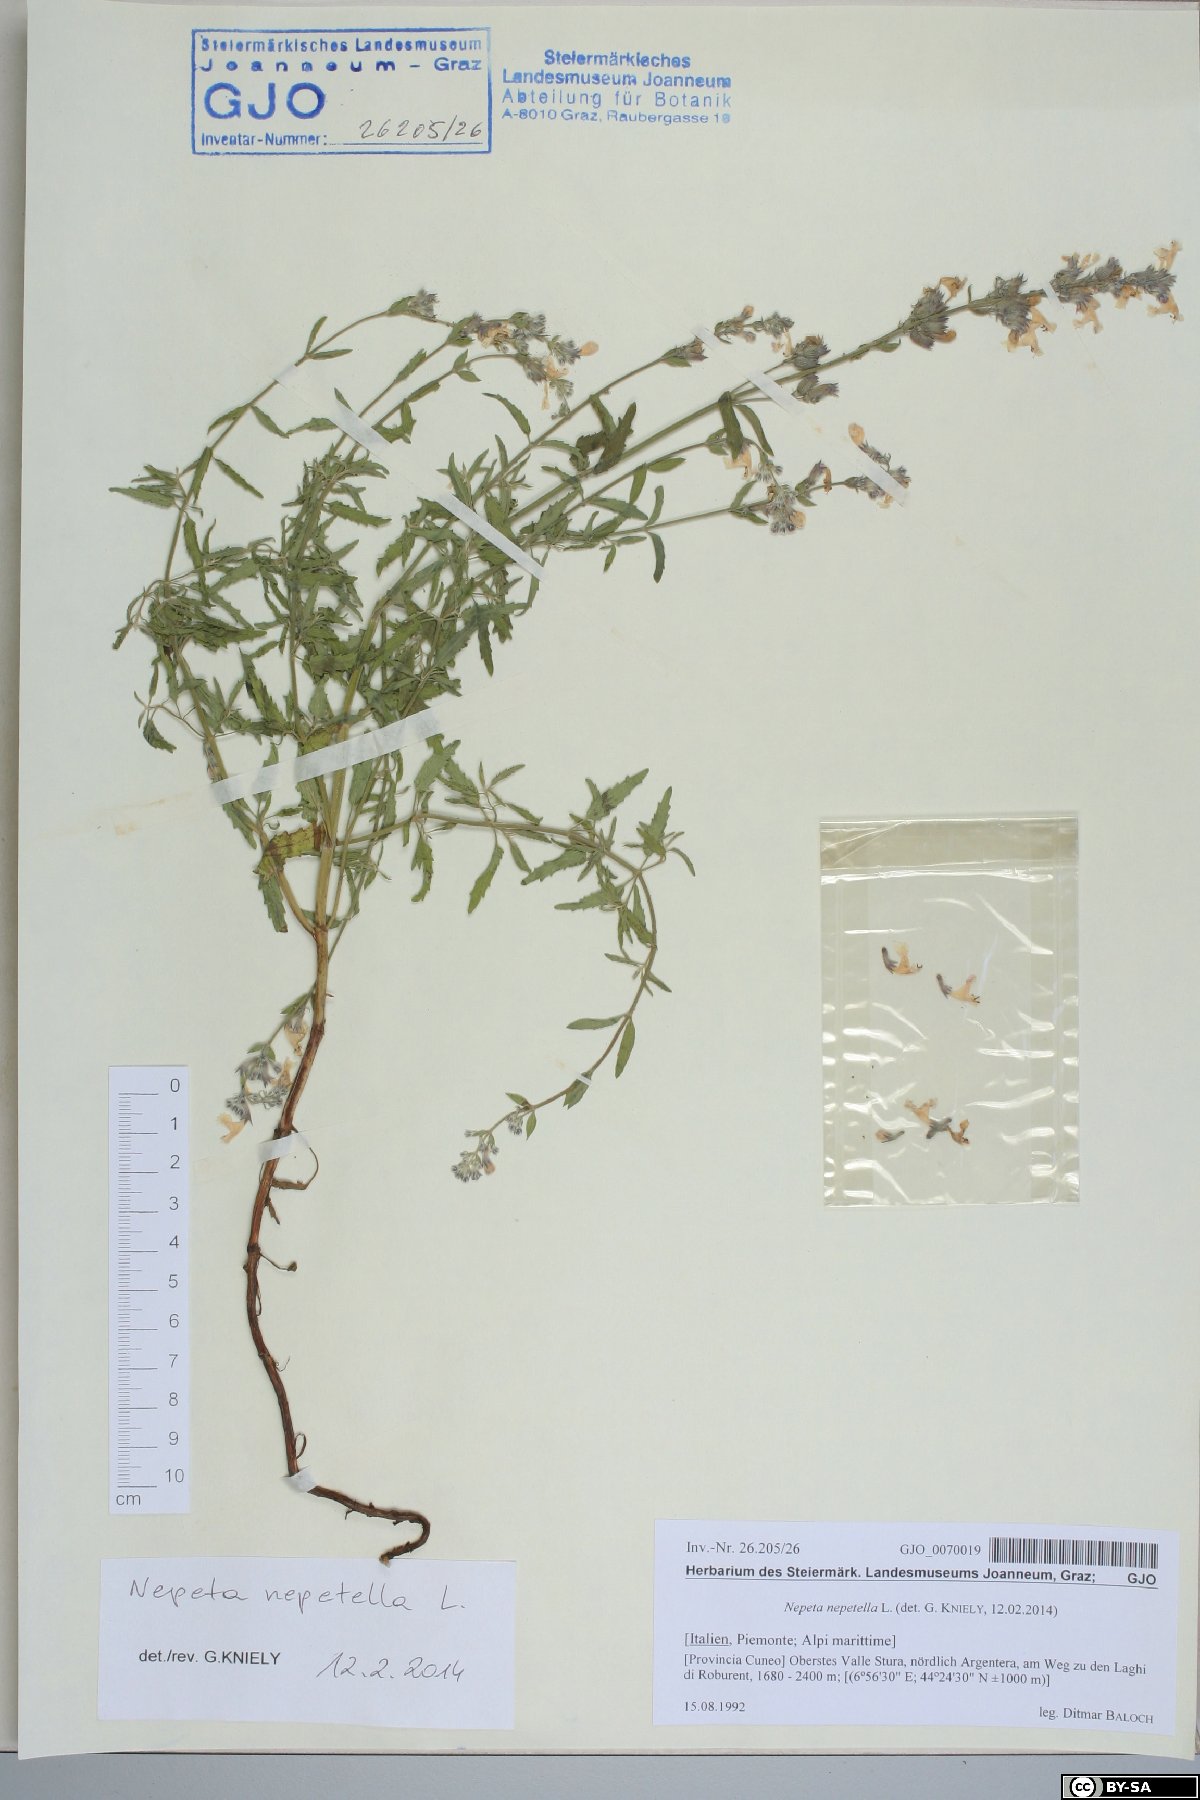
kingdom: Plantae
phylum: Tracheophyta
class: Magnoliopsida
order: Lamiales
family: Lamiaceae
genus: Nepeta
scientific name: Nepeta nepetella
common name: Lesser catmint
